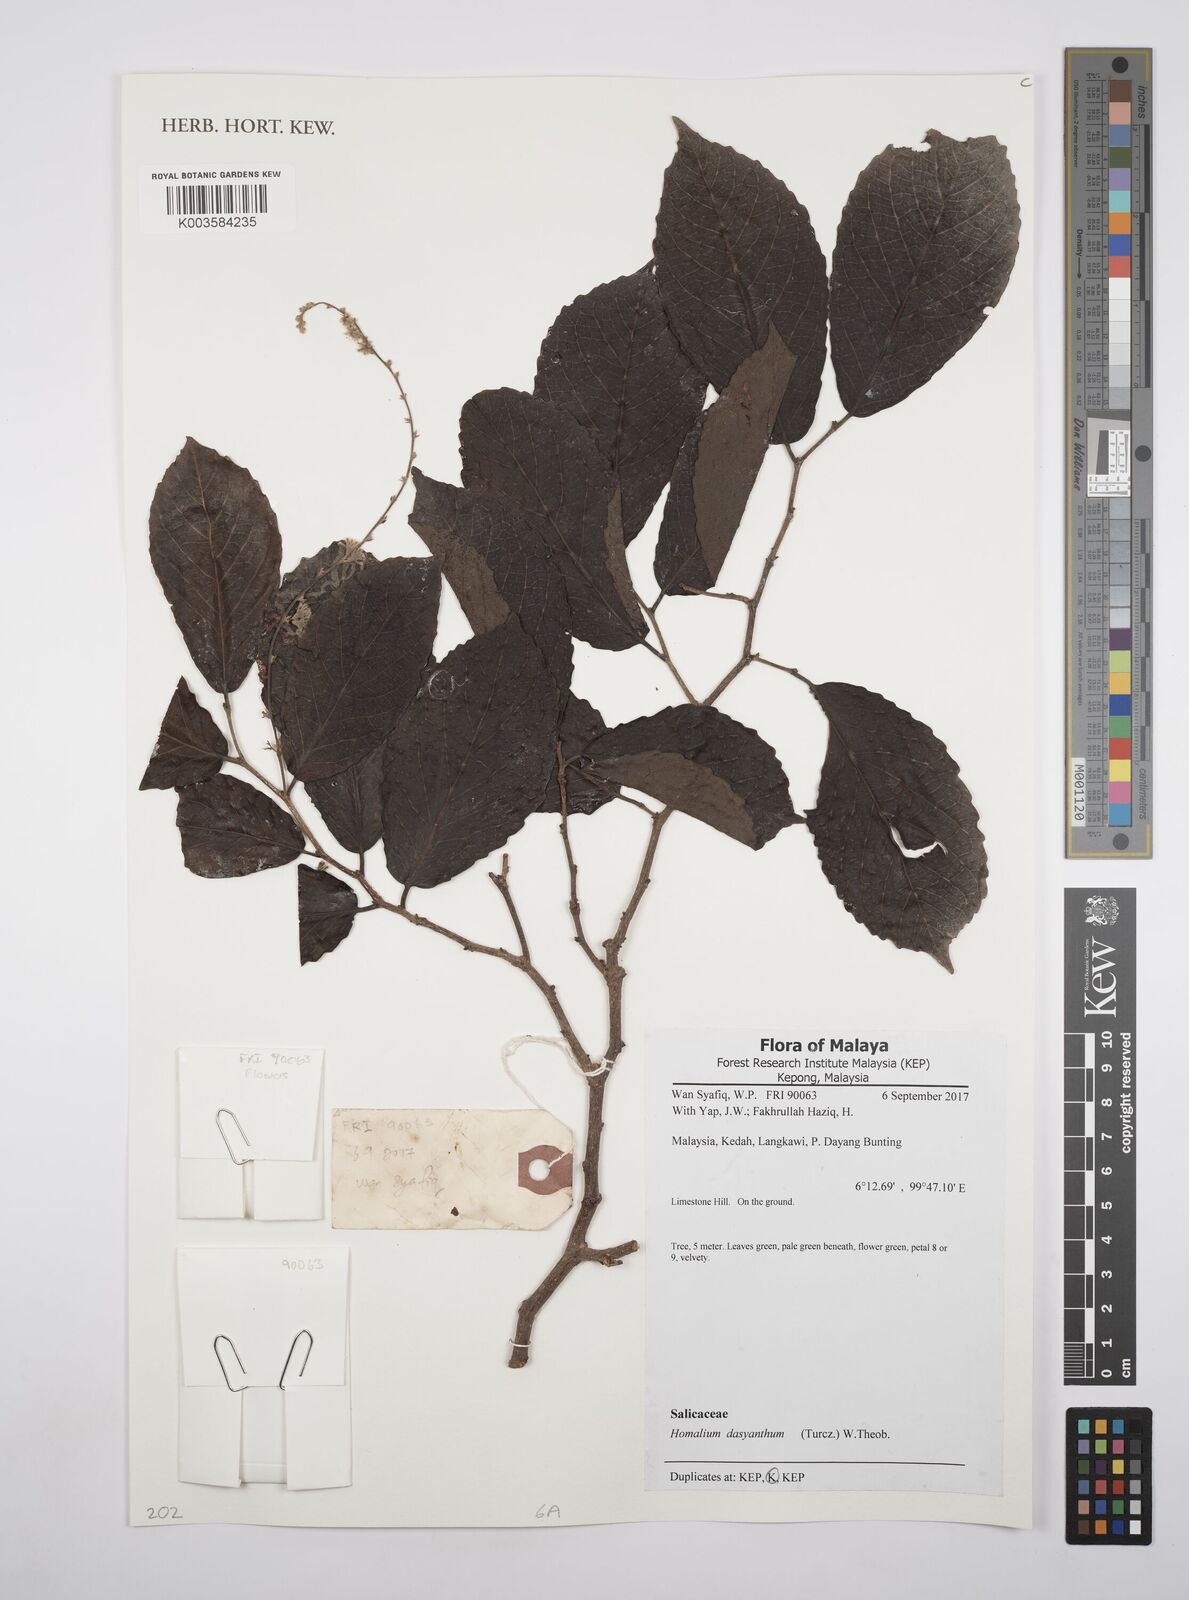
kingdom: Plantae
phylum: Tracheophyta
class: Magnoliopsida
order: Malpighiales
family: Salicaceae
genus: Homalium
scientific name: Homalium dasyanthum
